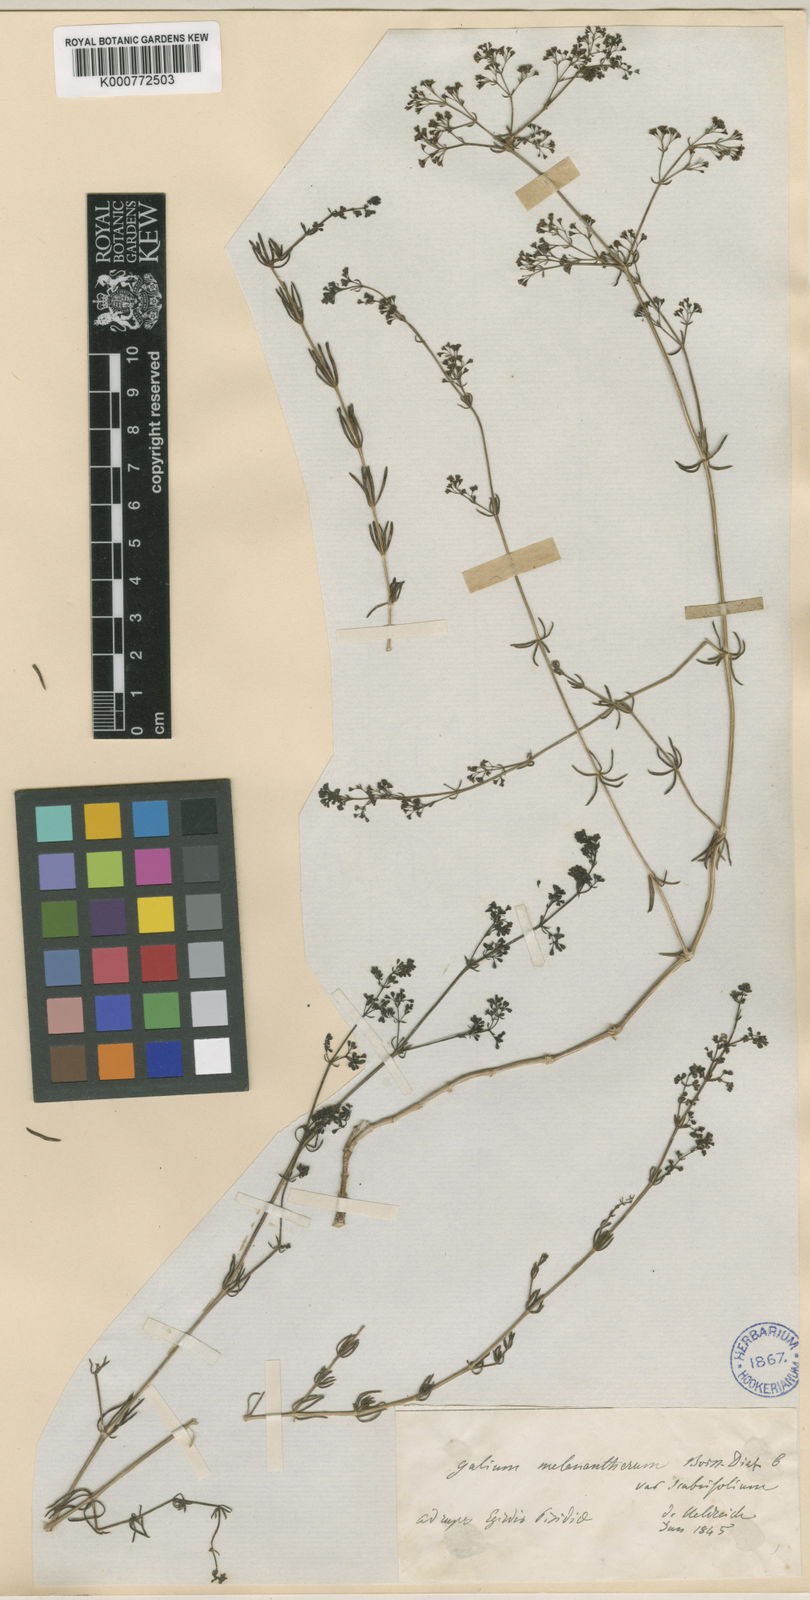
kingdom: Plantae
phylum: Tracheophyta
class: Magnoliopsida
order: Gentianales
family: Rubiaceae
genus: Galium
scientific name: Galium incurvum
